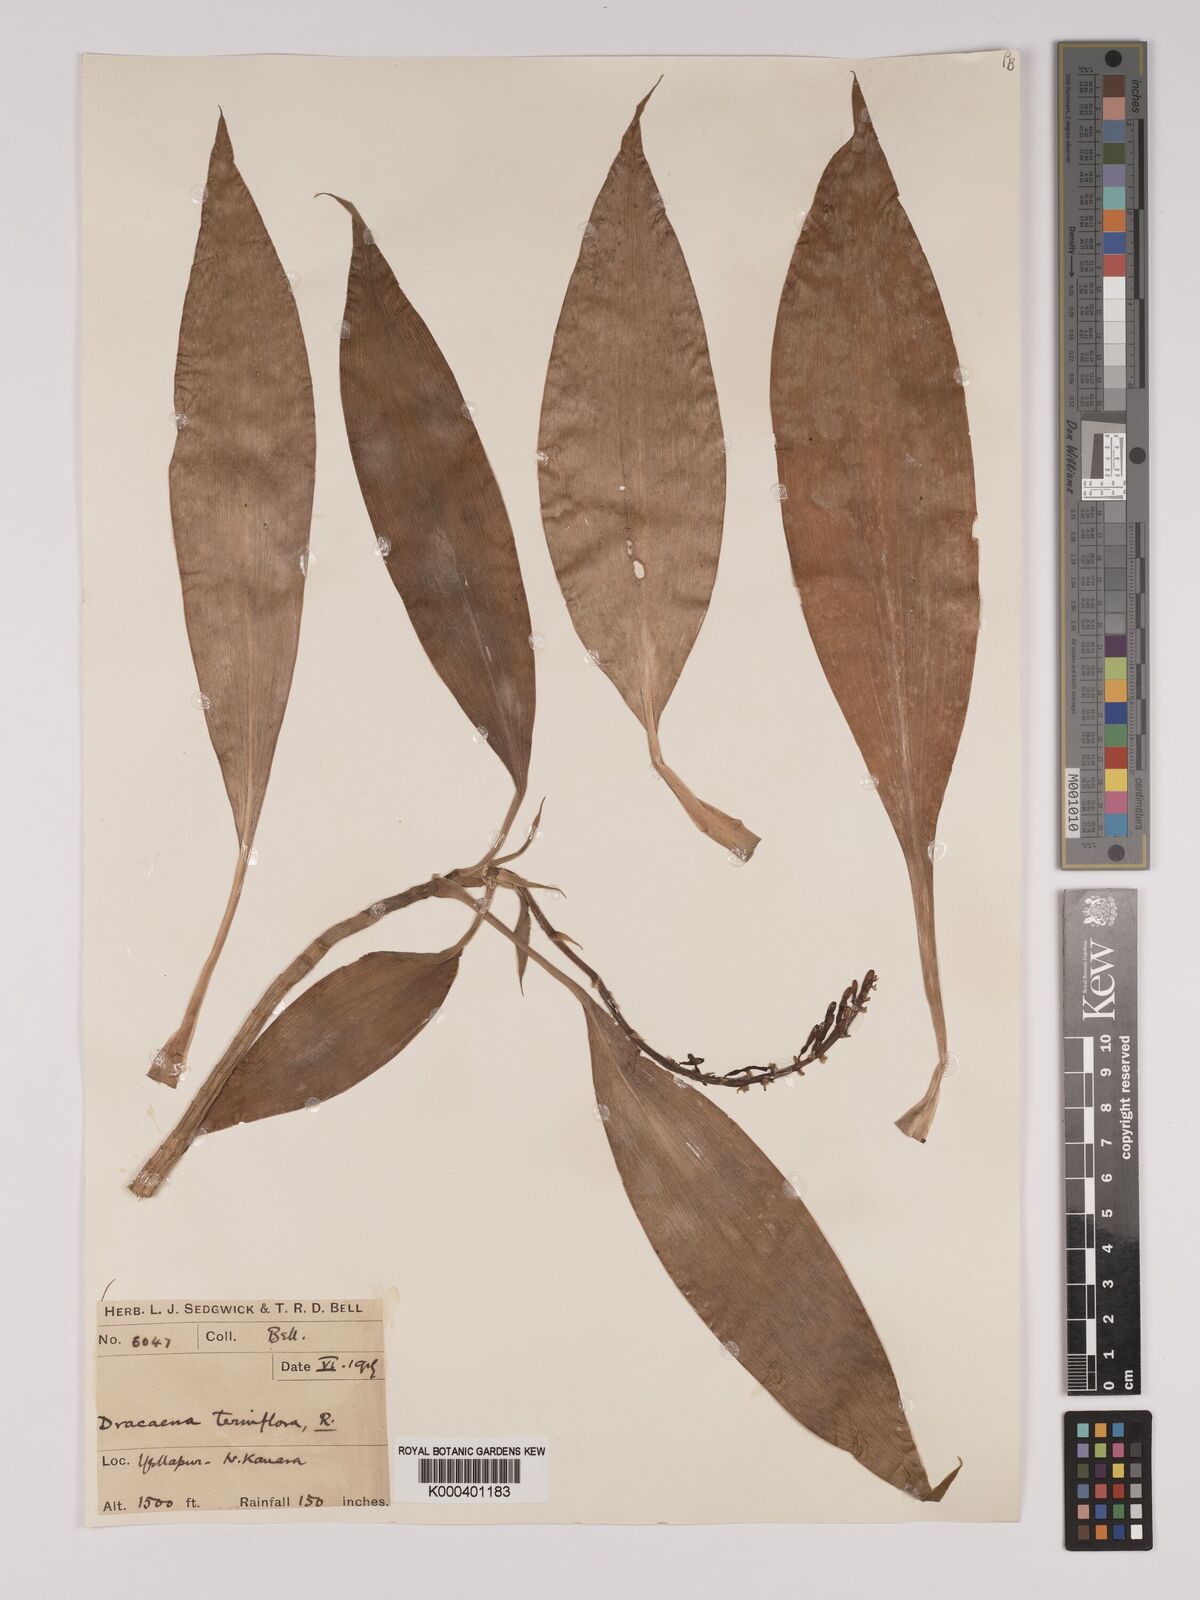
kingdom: Plantae
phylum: Tracheophyta
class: Liliopsida
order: Asparagales
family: Asparagaceae
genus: Dracaena
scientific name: Dracaena terniflora
